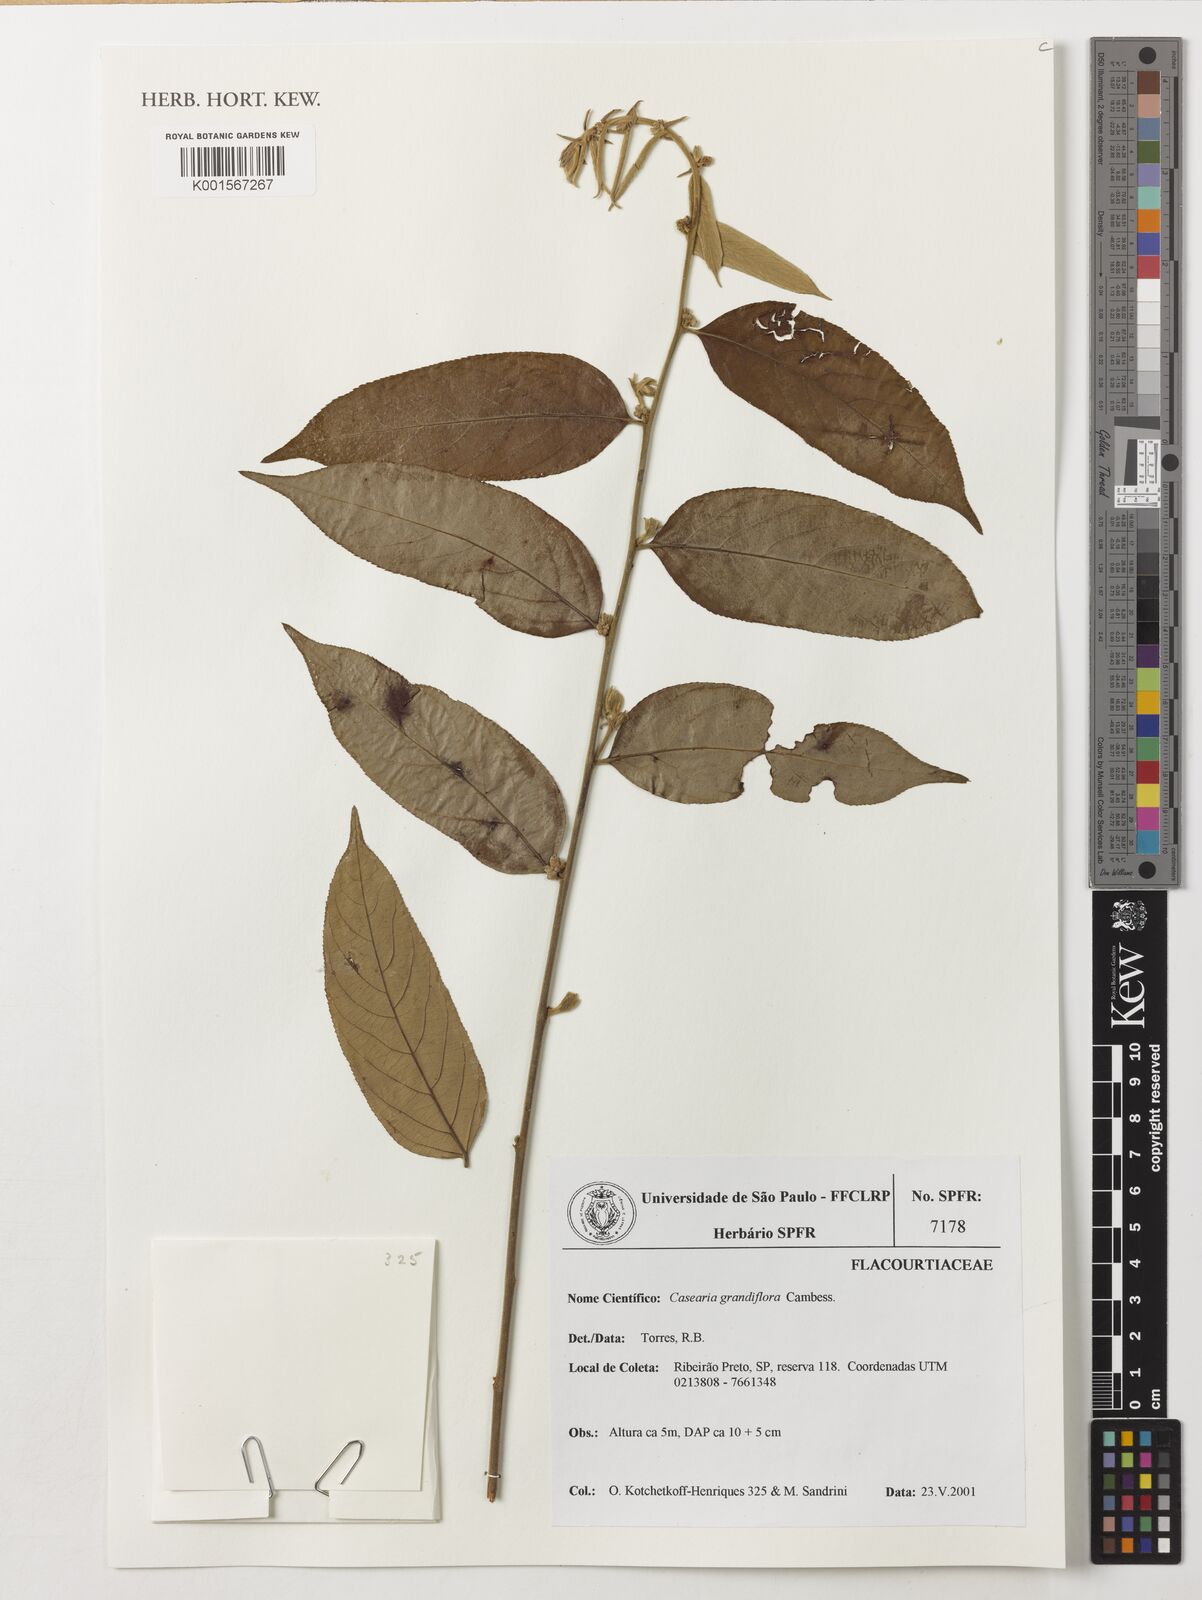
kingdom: Plantae
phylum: Tracheophyta
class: Magnoliopsida
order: Malpighiales
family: Salicaceae
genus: Casearia
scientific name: Casearia grandiflora
